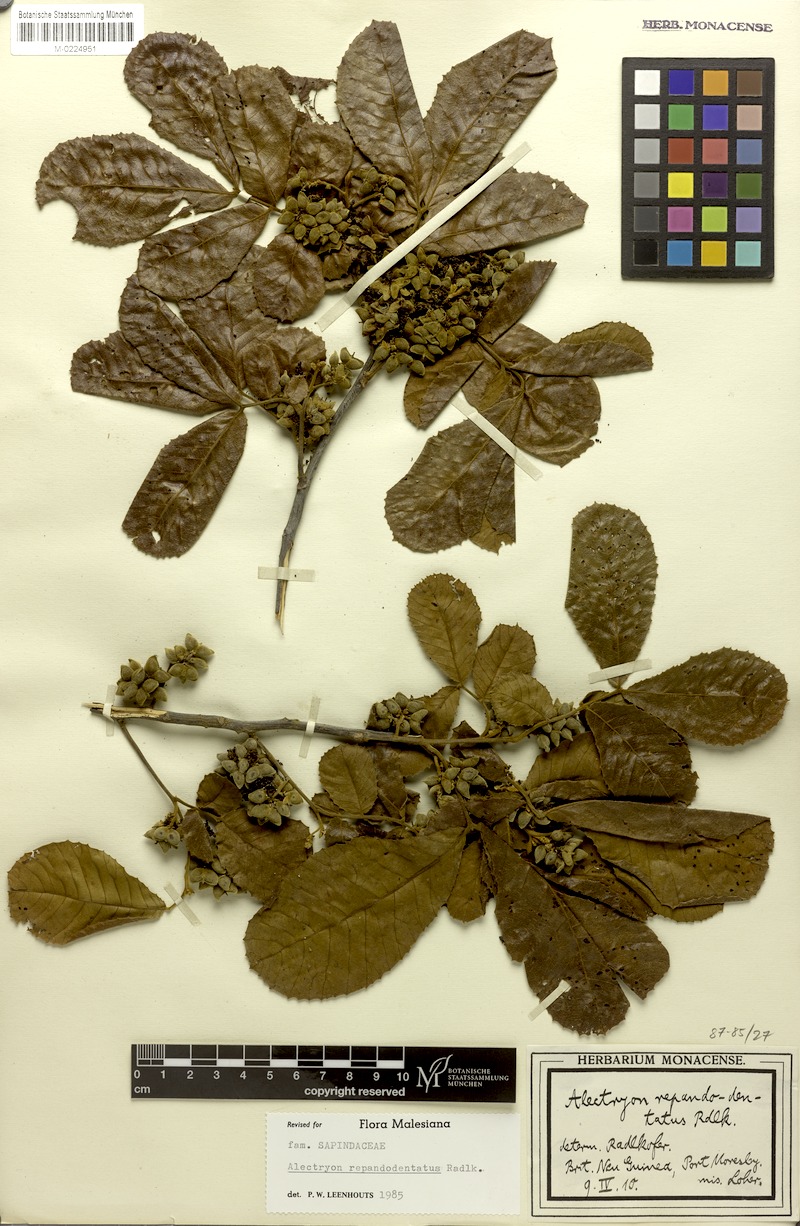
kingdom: Plantae
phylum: Tracheophyta
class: Magnoliopsida
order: Sapindales
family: Sapindaceae
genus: Alectryon
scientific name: Alectryon repandodentatus
